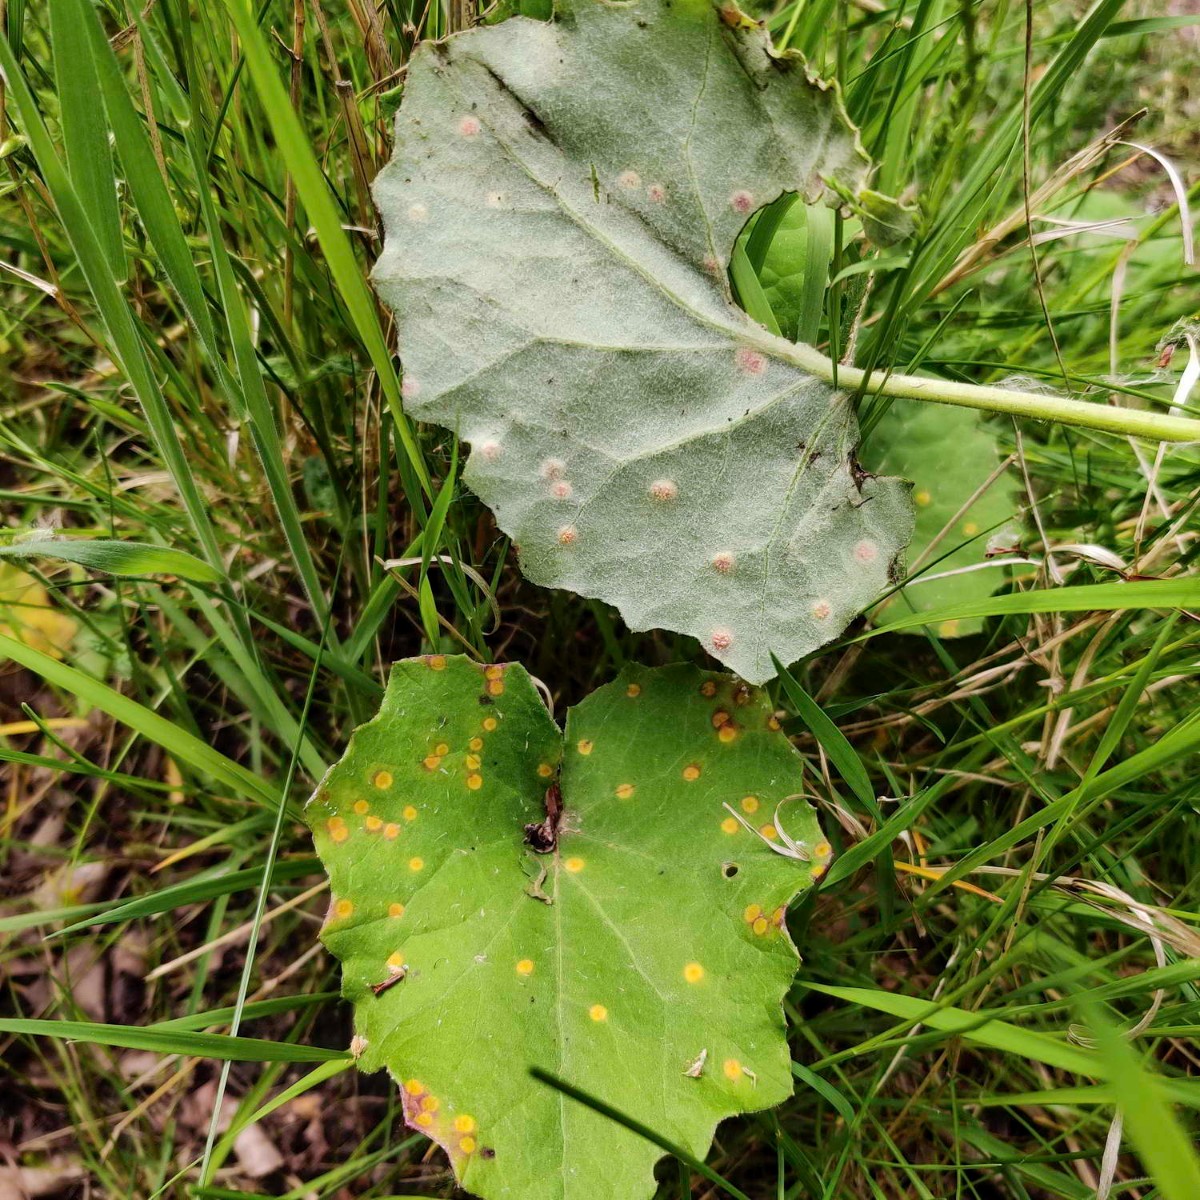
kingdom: Fungi
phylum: Basidiomycota
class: Pucciniomycetes
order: Pucciniales
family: Pucciniaceae
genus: Puccinia
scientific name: Puccinia poarum
